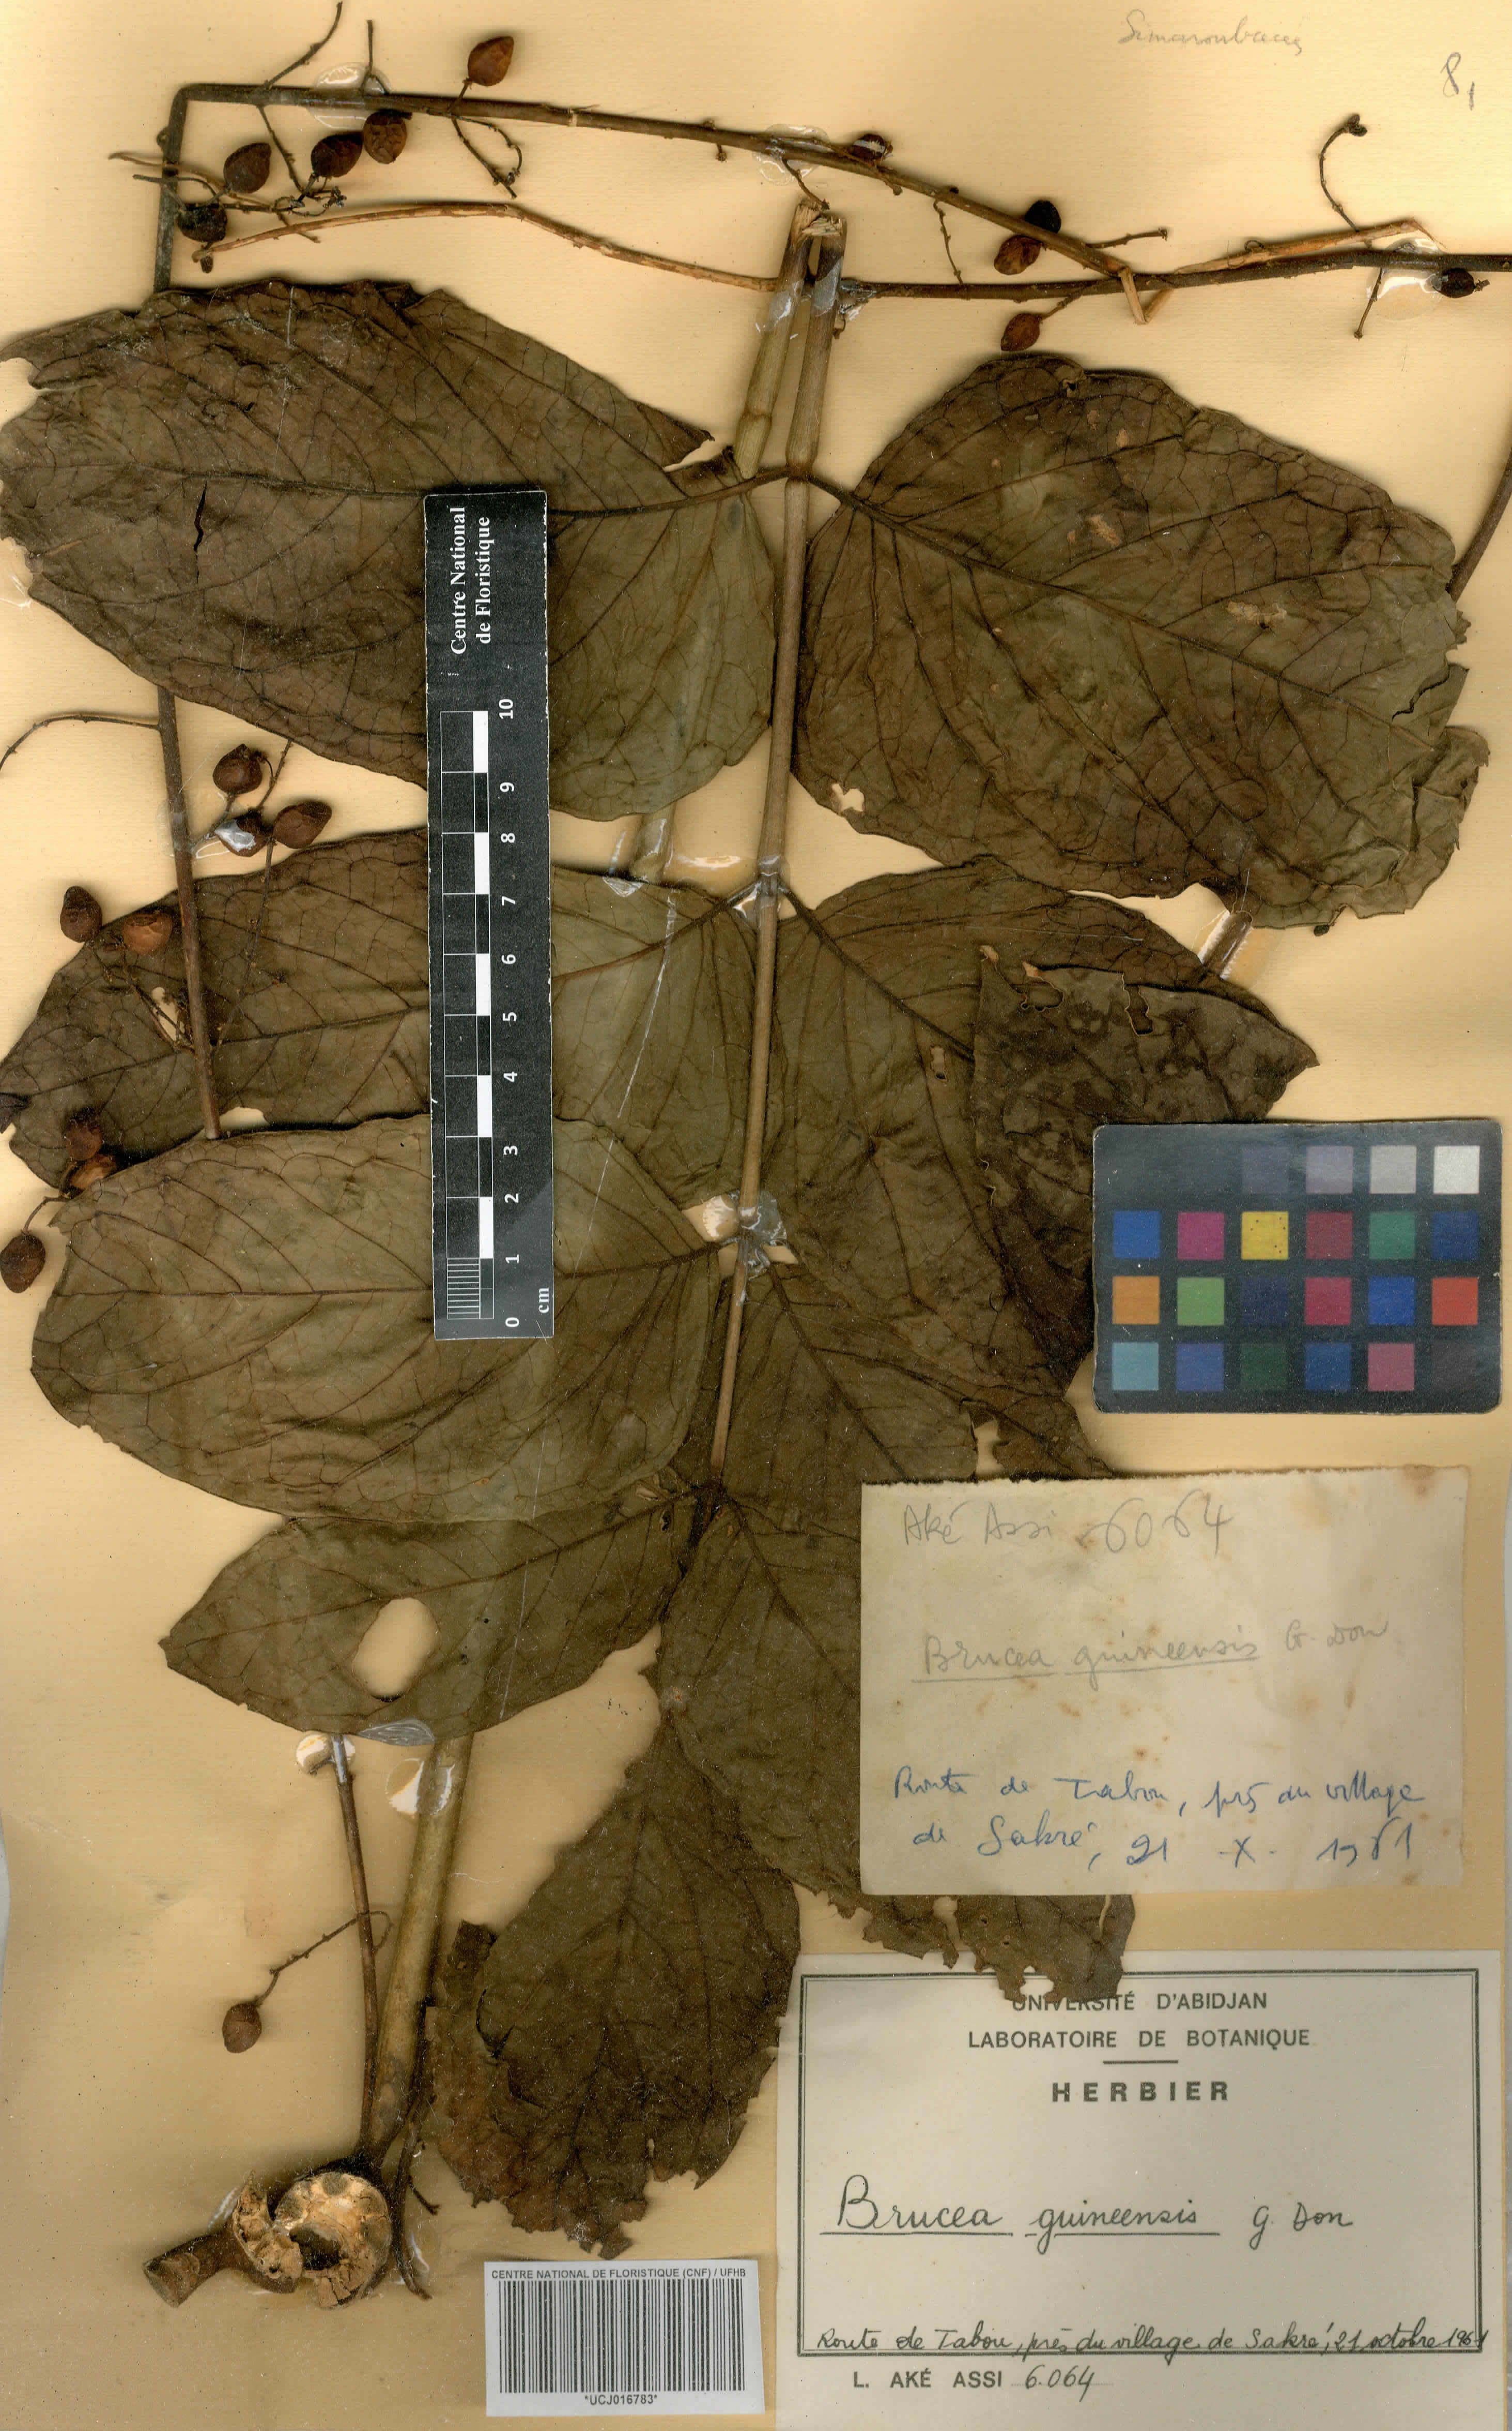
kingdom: Plantae
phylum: Tracheophyta
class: Magnoliopsida
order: Sapindales
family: Anacardiaceae
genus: Trichoscypha
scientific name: Trichoscypha smythei
